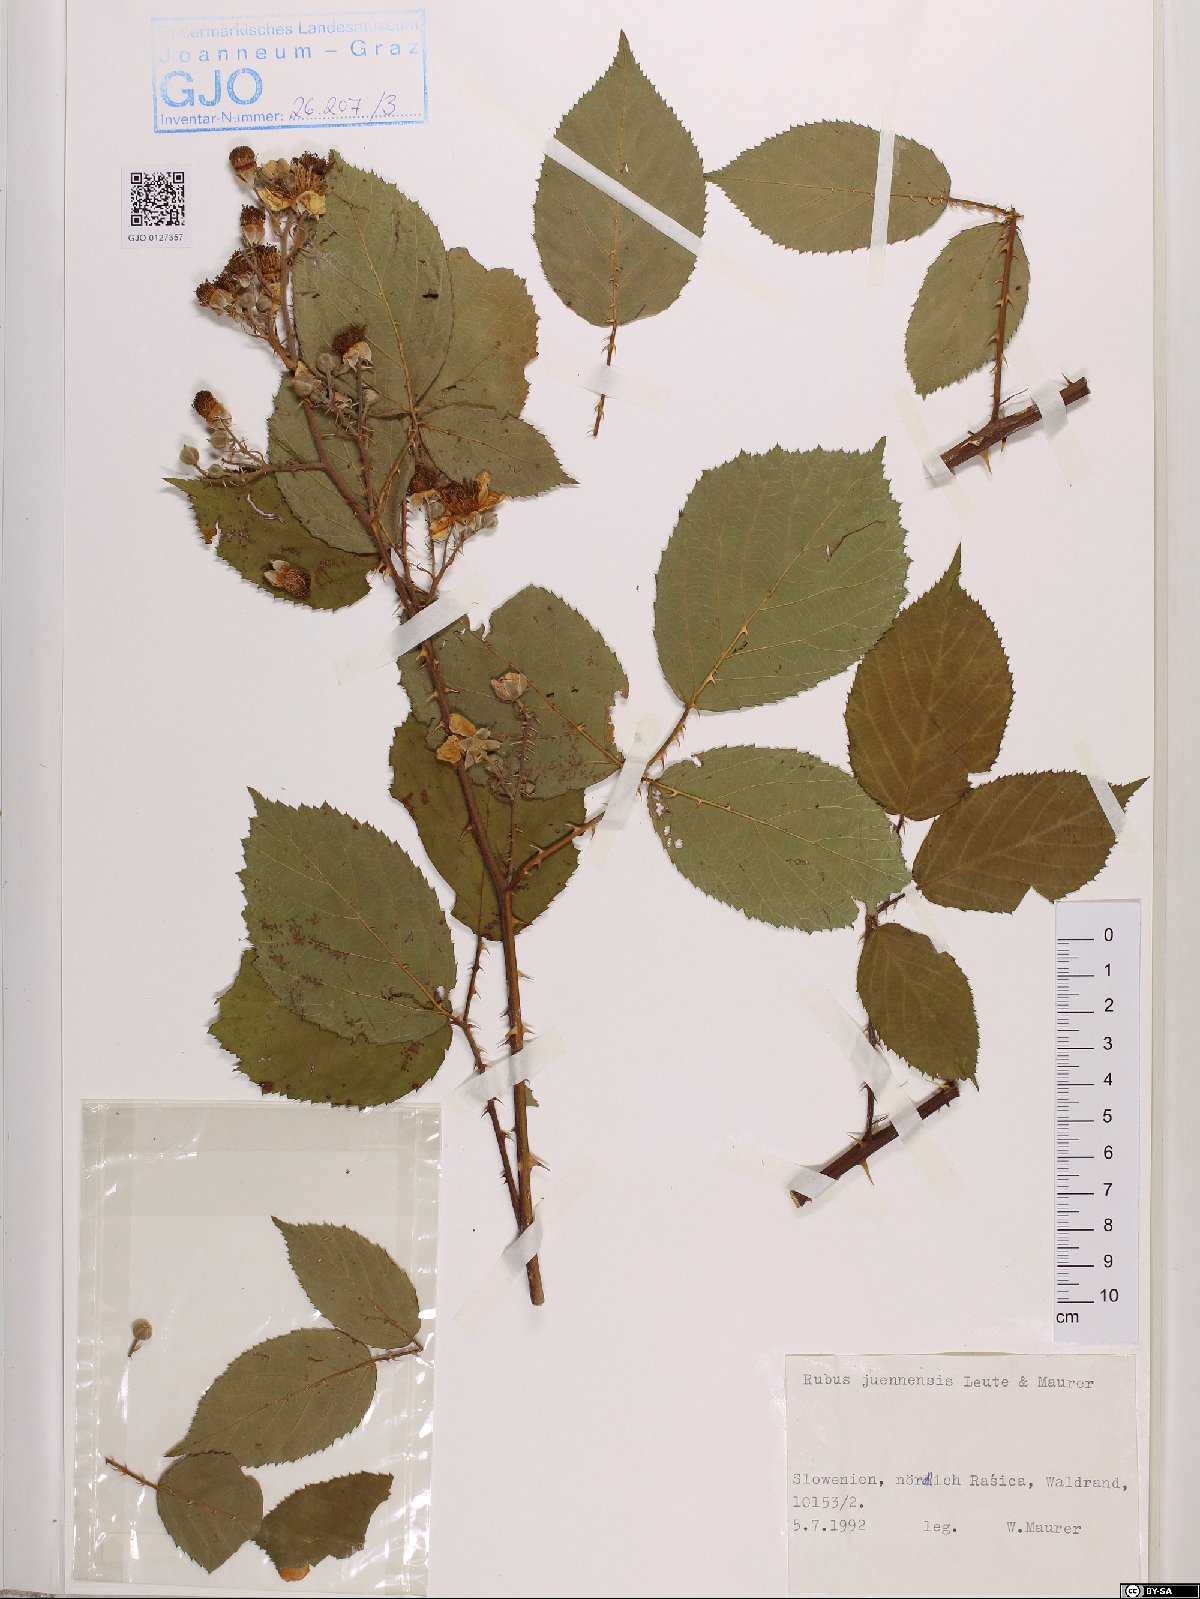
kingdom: Plantae
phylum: Tracheophyta
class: Magnoliopsida
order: Rosales
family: Rosaceae
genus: Rubus
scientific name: Rubus juennensis
